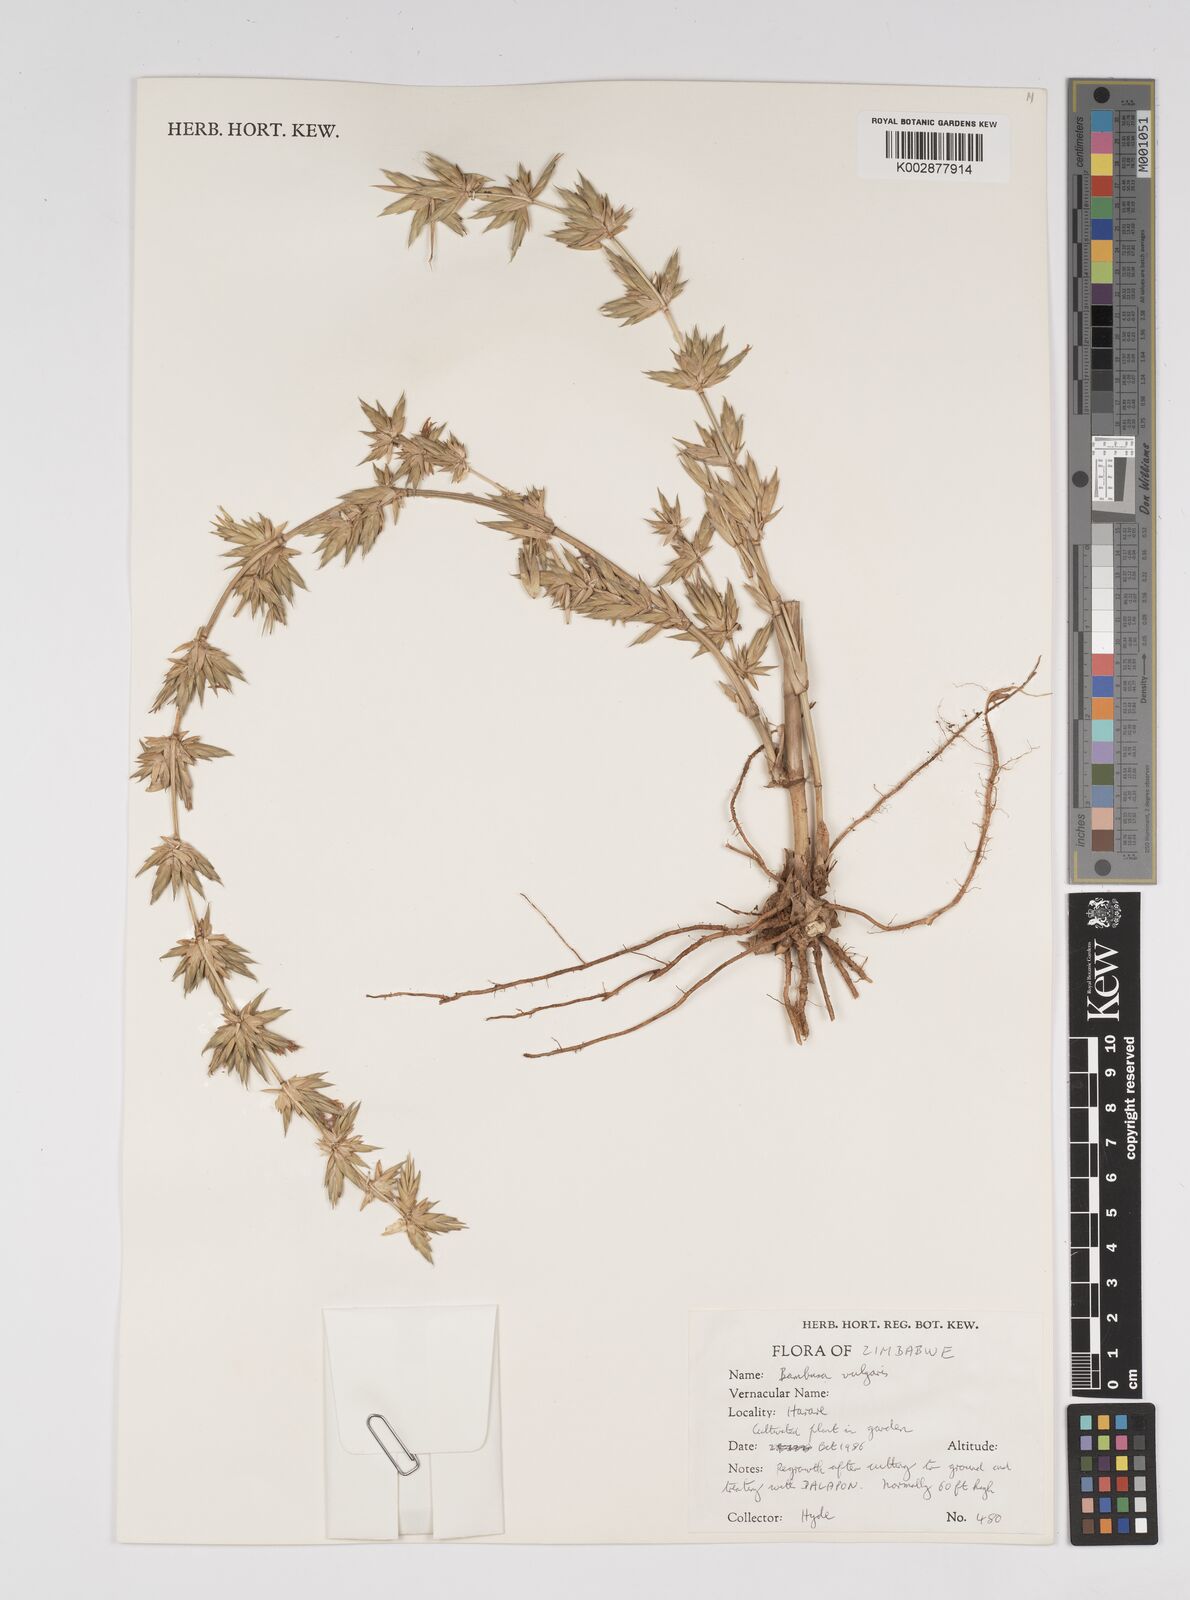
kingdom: Plantae
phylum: Tracheophyta
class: Liliopsida
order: Poales
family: Poaceae
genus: Bambusa
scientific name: Bambusa vulgaris
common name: Common bamboo
